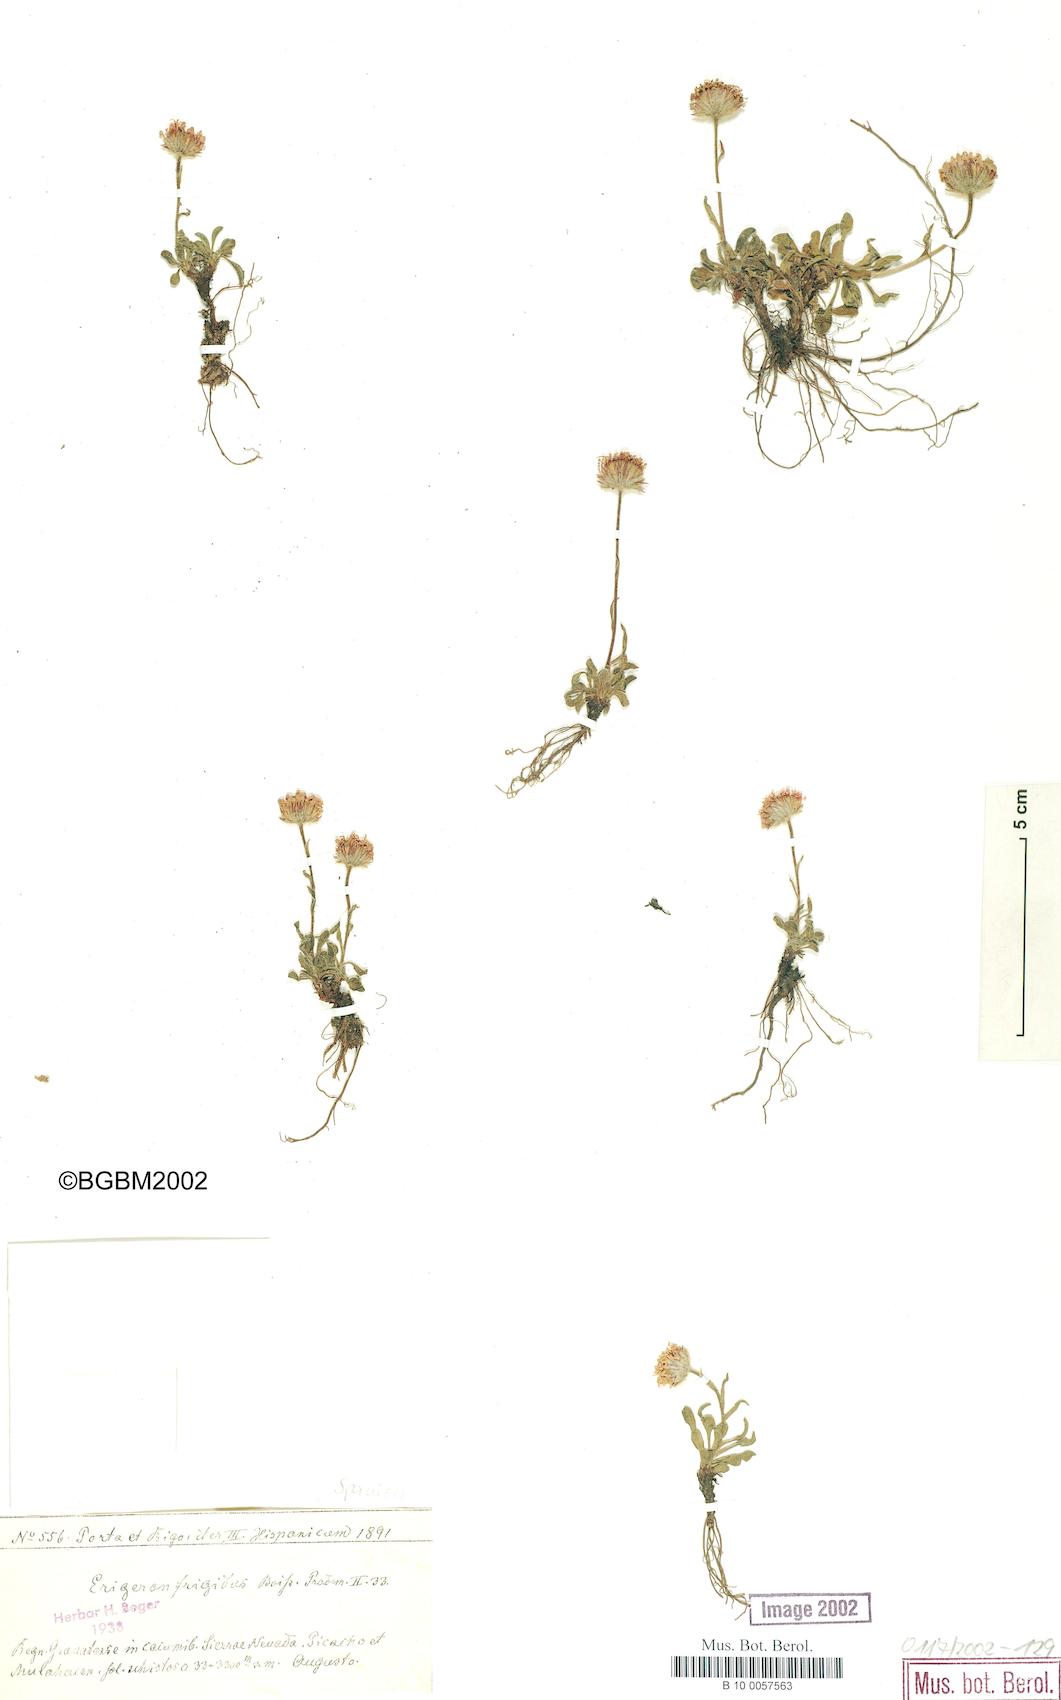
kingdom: Plantae
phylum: Tracheophyta
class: Magnoliopsida
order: Asterales
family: Asteraceae
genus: Erigeron
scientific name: Erigeron glaucus
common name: Seaside daisy
